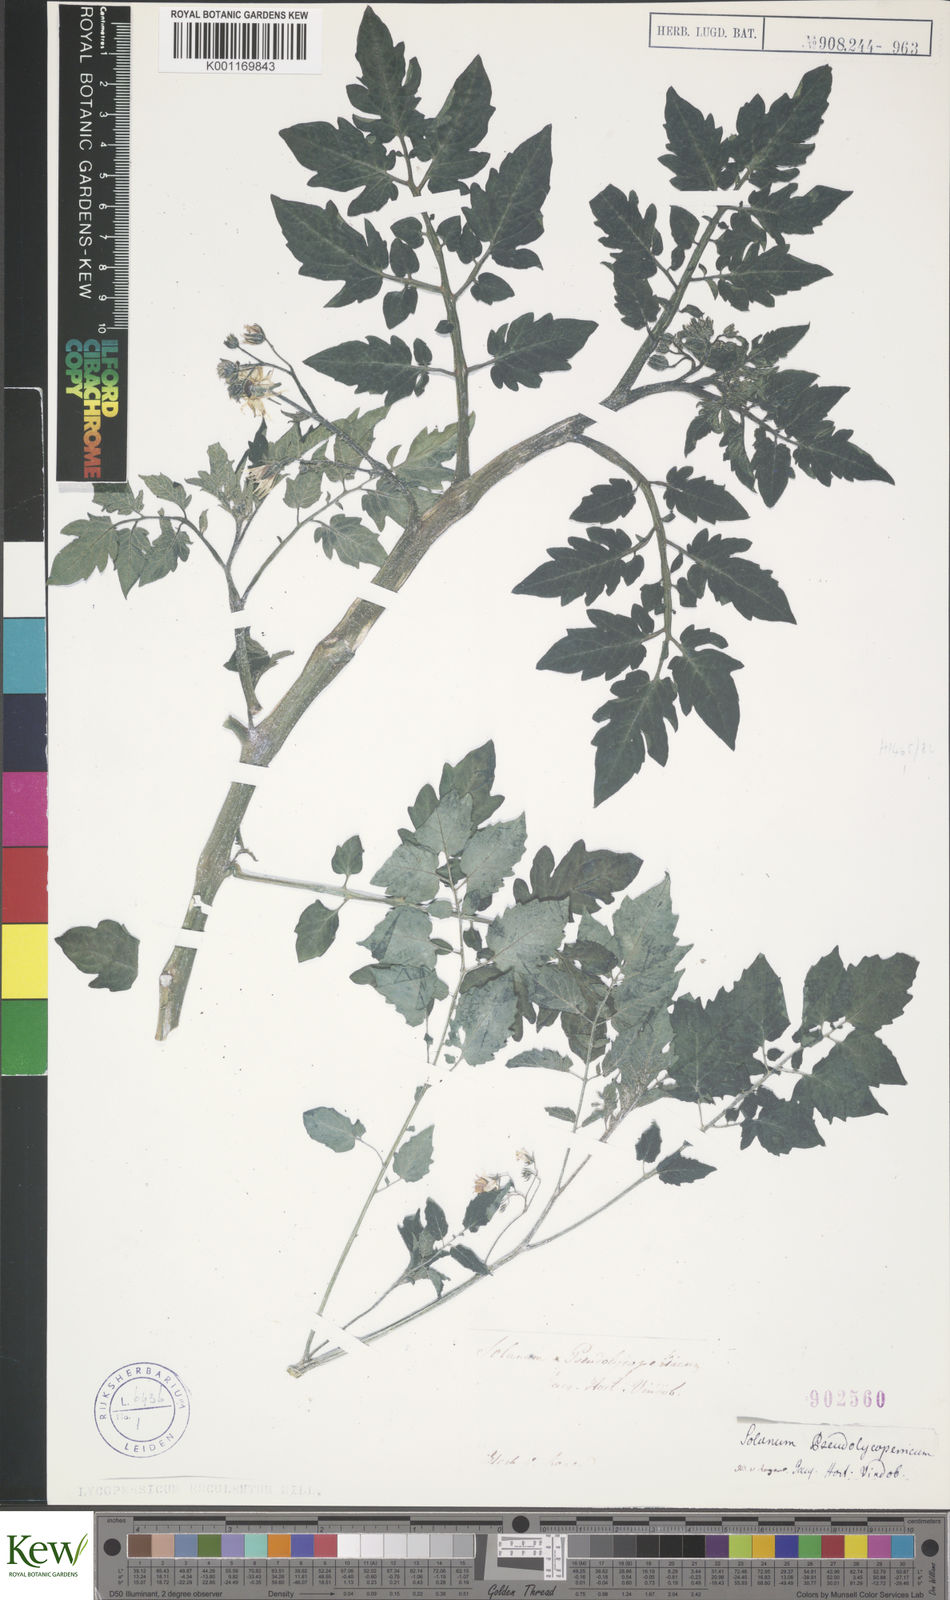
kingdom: Plantae
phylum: Tracheophyta
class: Magnoliopsida
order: Solanales
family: Solanaceae
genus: Solanum
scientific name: Solanum lycopersicum
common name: Garden tomato
